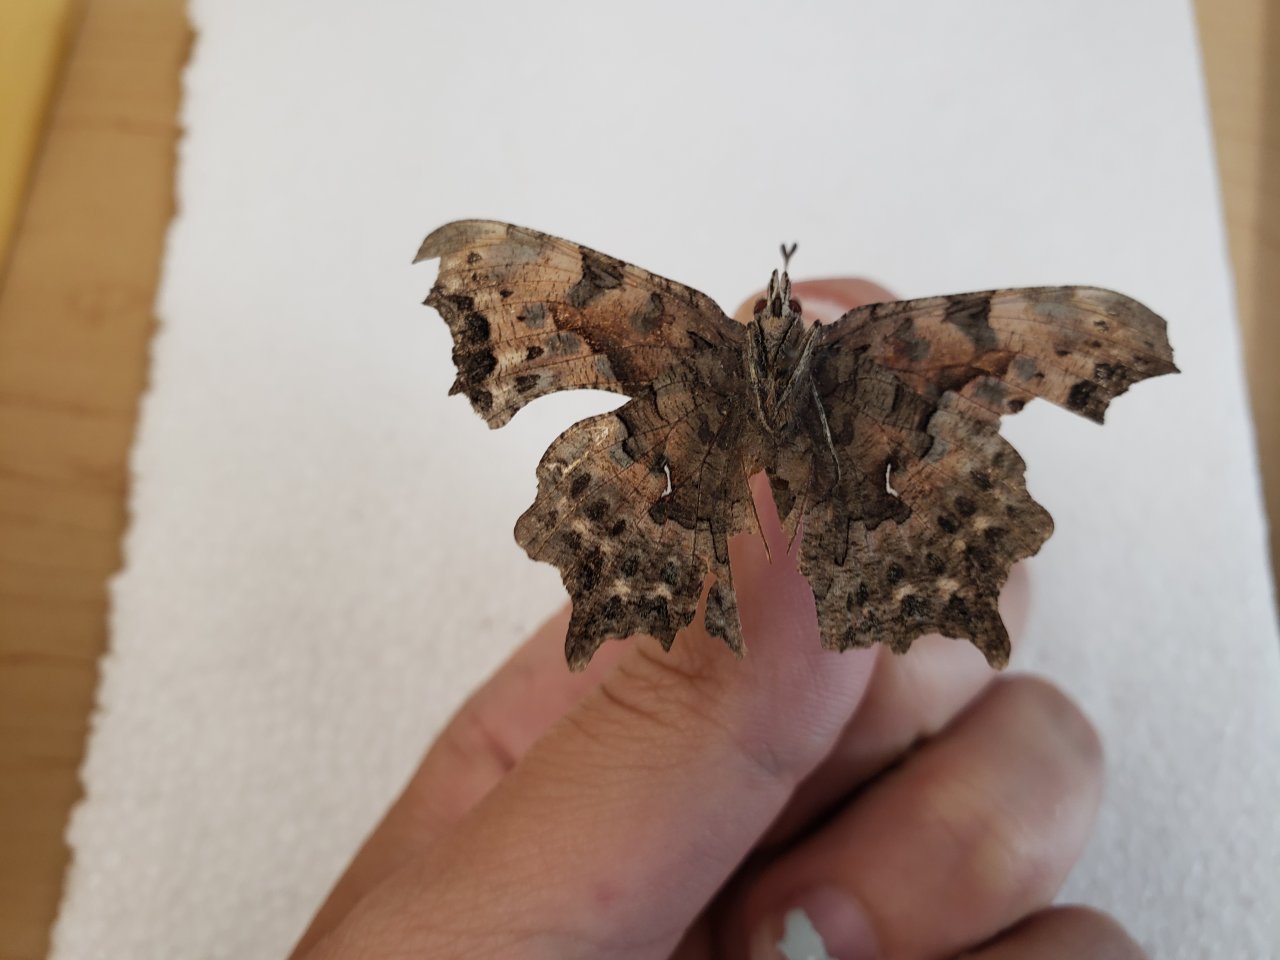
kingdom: Animalia
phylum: Arthropoda
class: Insecta
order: Lepidoptera
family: Nymphalidae
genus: Polygonia
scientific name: Polygonia faunus
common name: Green Comma
